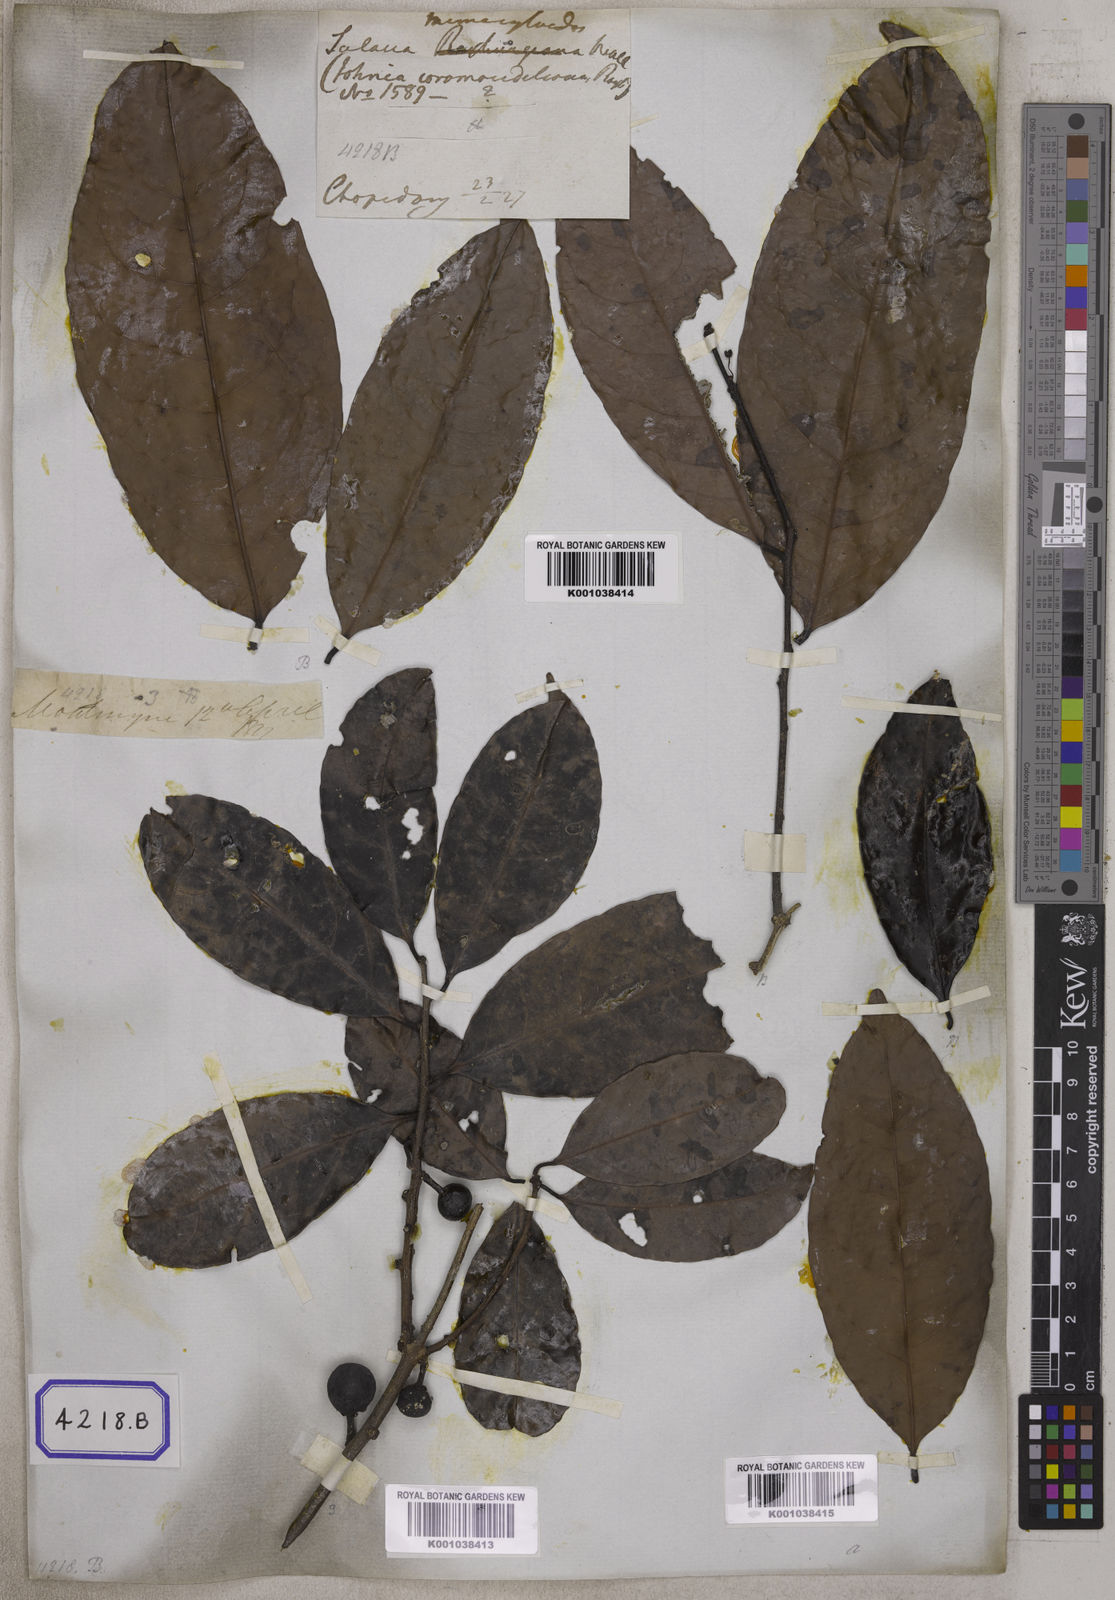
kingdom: Plantae
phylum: Tracheophyta
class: Magnoliopsida
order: Celastrales
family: Celastraceae
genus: Salacia
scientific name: Salacia verrucosa
